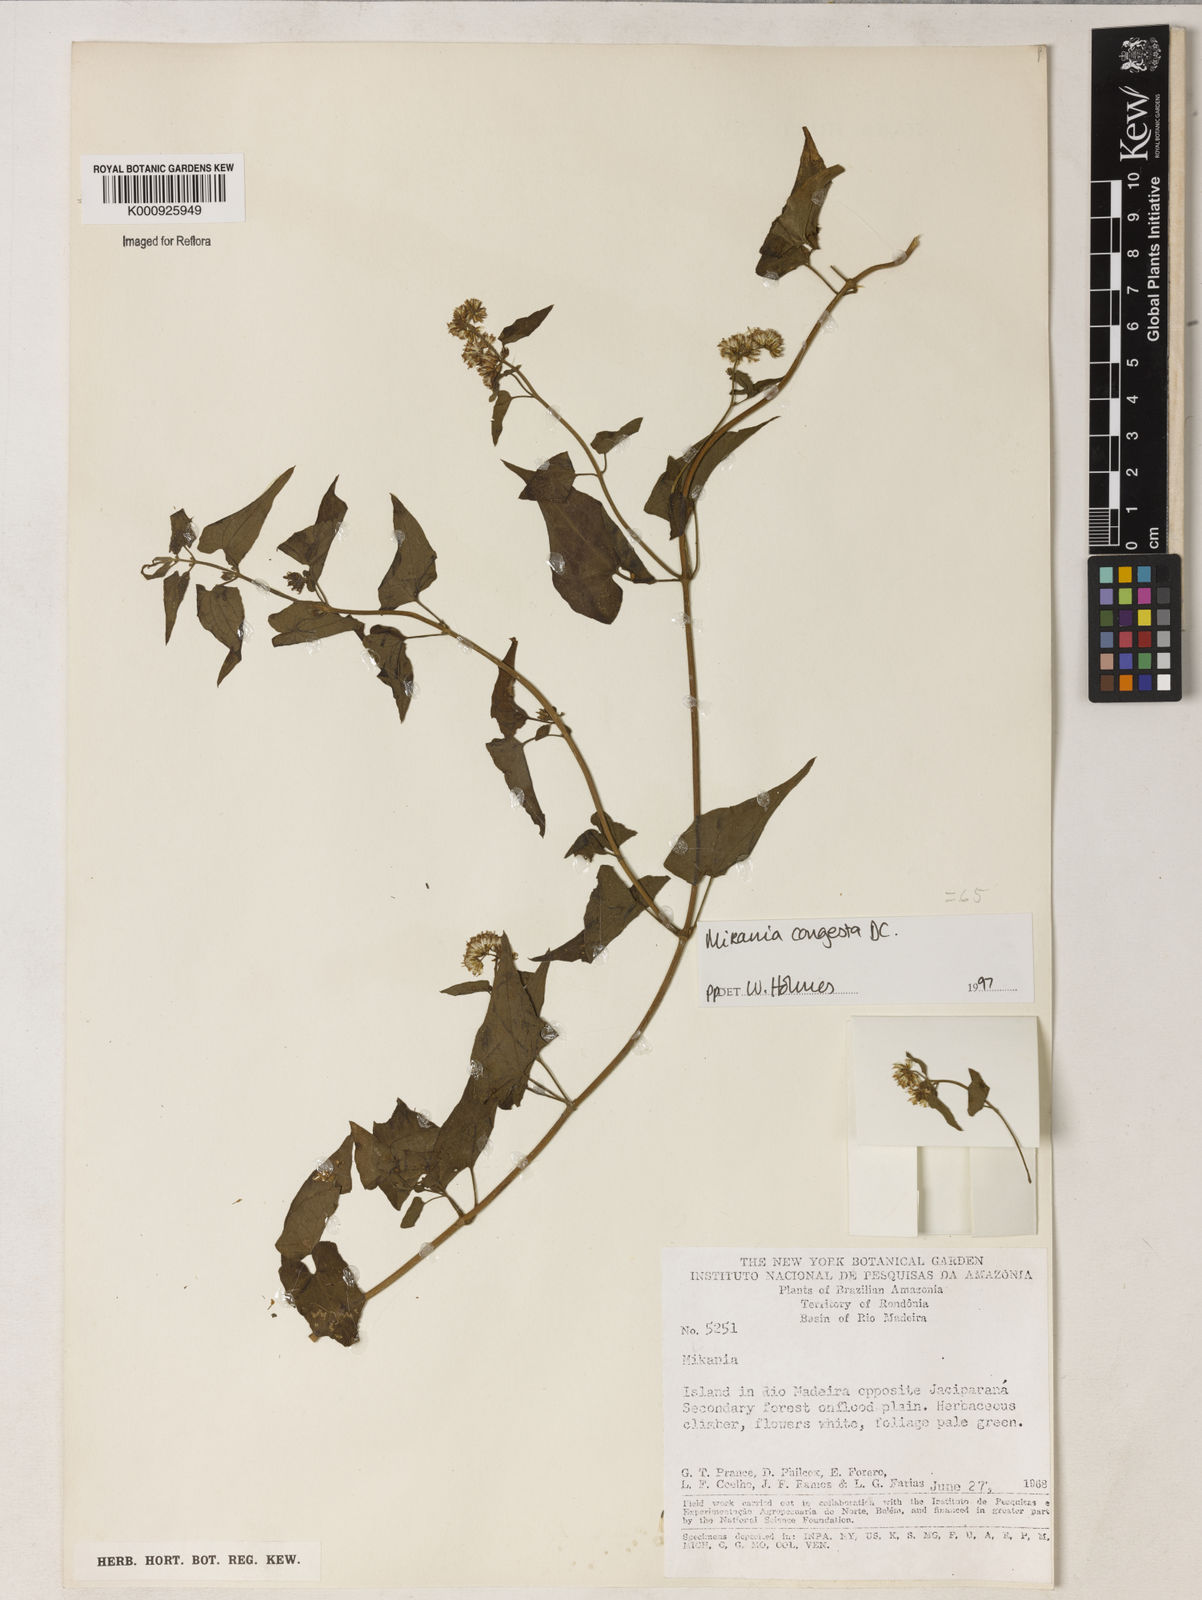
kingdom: Plantae
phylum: Tracheophyta
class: Magnoliopsida
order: Asterales
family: Asteraceae
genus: Mikania
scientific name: Mikania congesta
